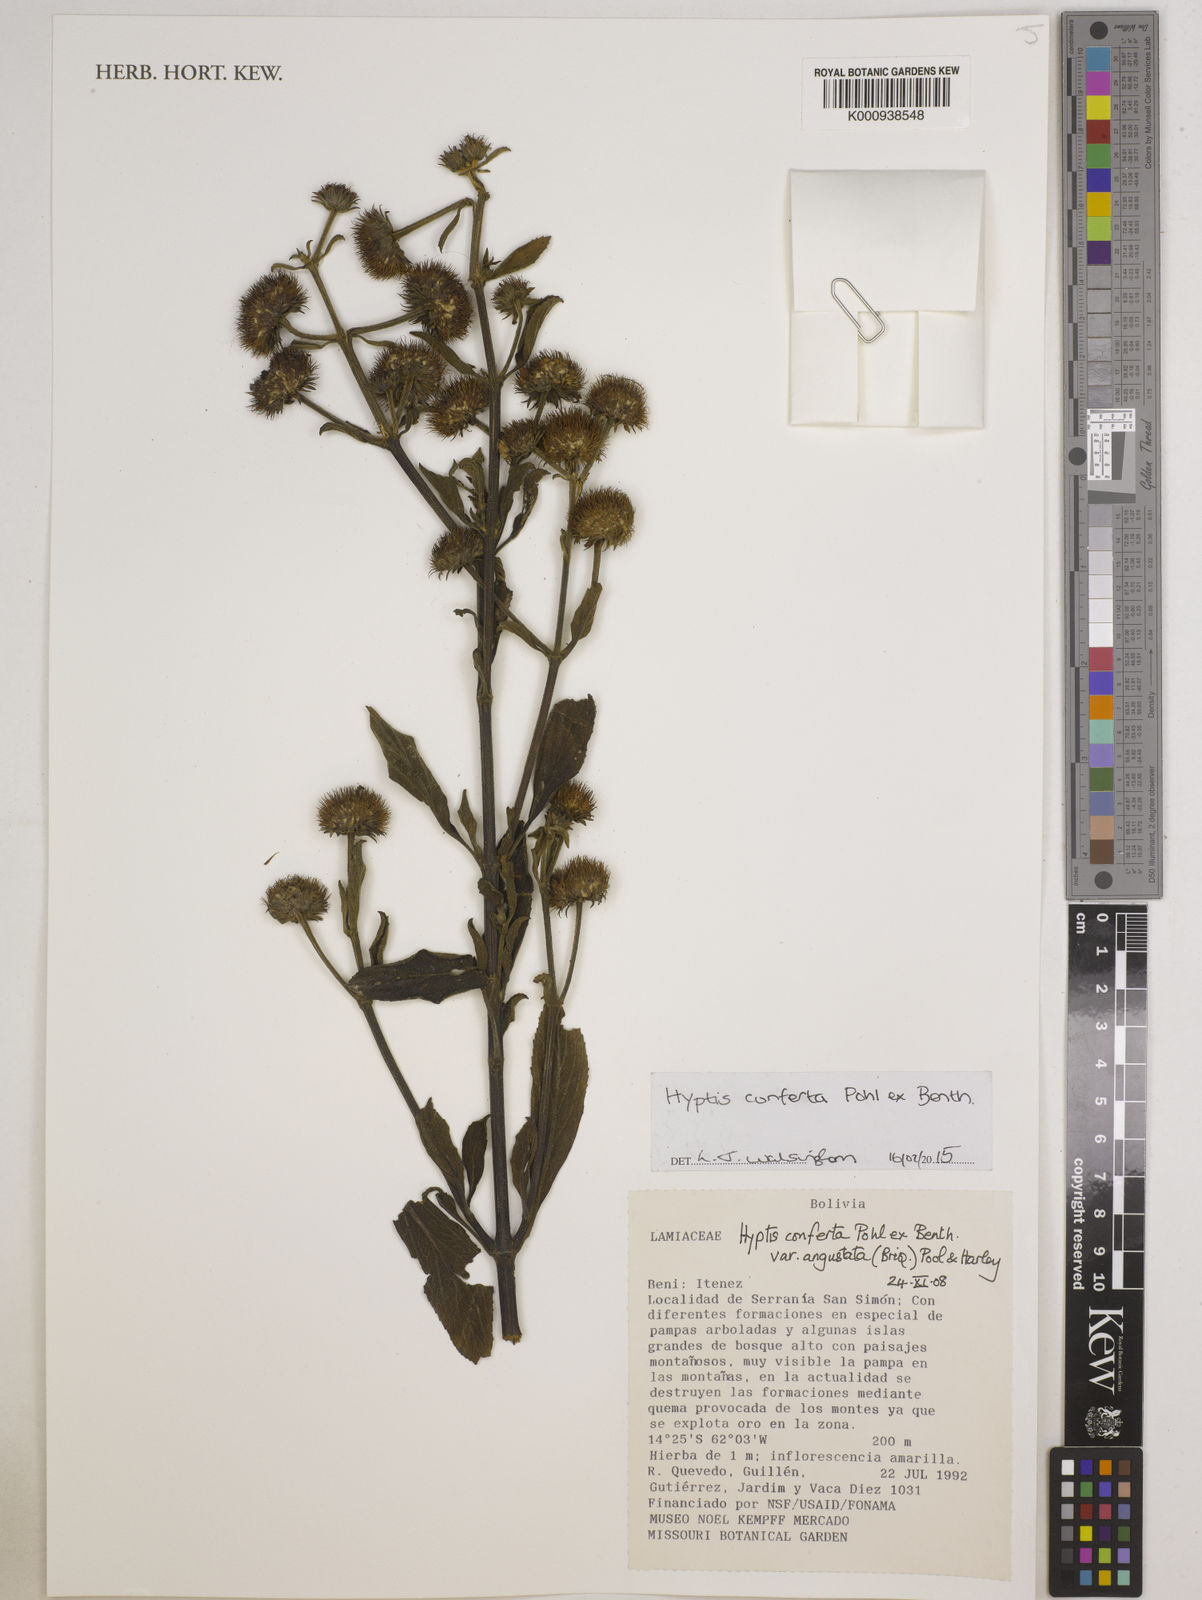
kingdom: Plantae
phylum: Tracheophyta
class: Magnoliopsida
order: Lamiales
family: Lamiaceae
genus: Hyptis
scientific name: Hyptis conferta
